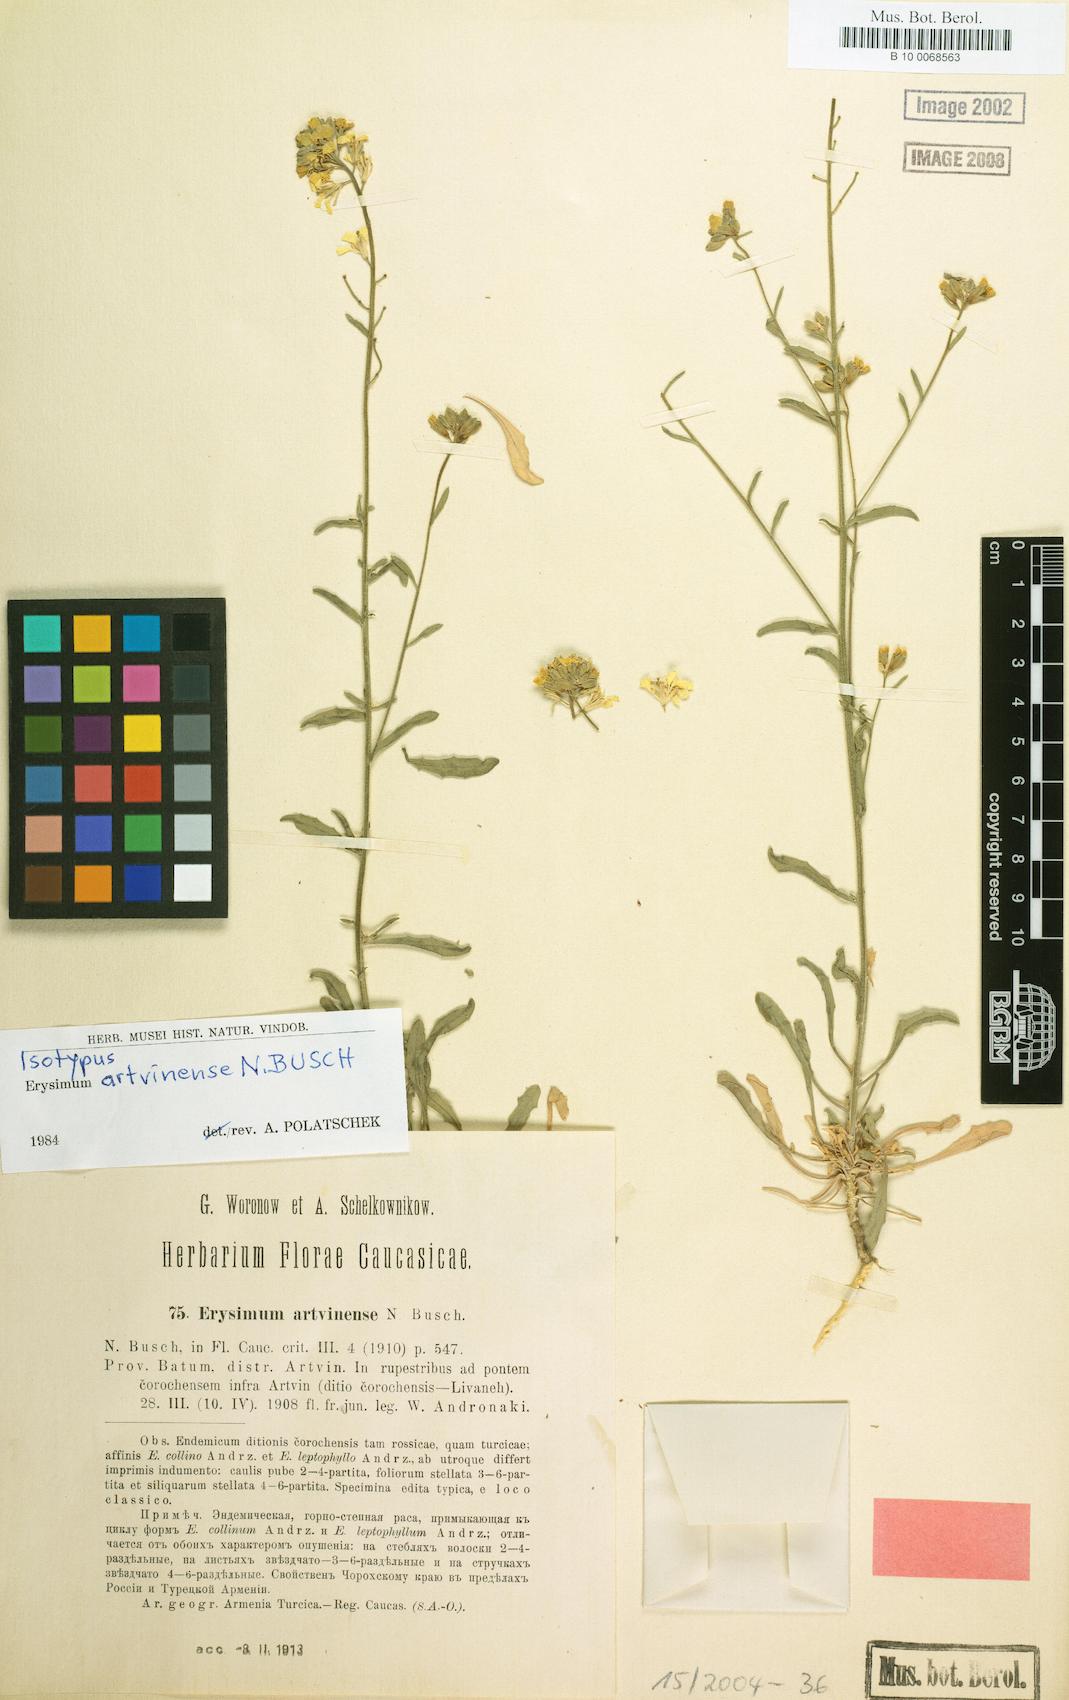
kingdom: Plantae
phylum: Tracheophyta
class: Magnoliopsida
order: Brassicales
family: Brassicaceae
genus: Erysimum
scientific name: Erysimum artwinense
